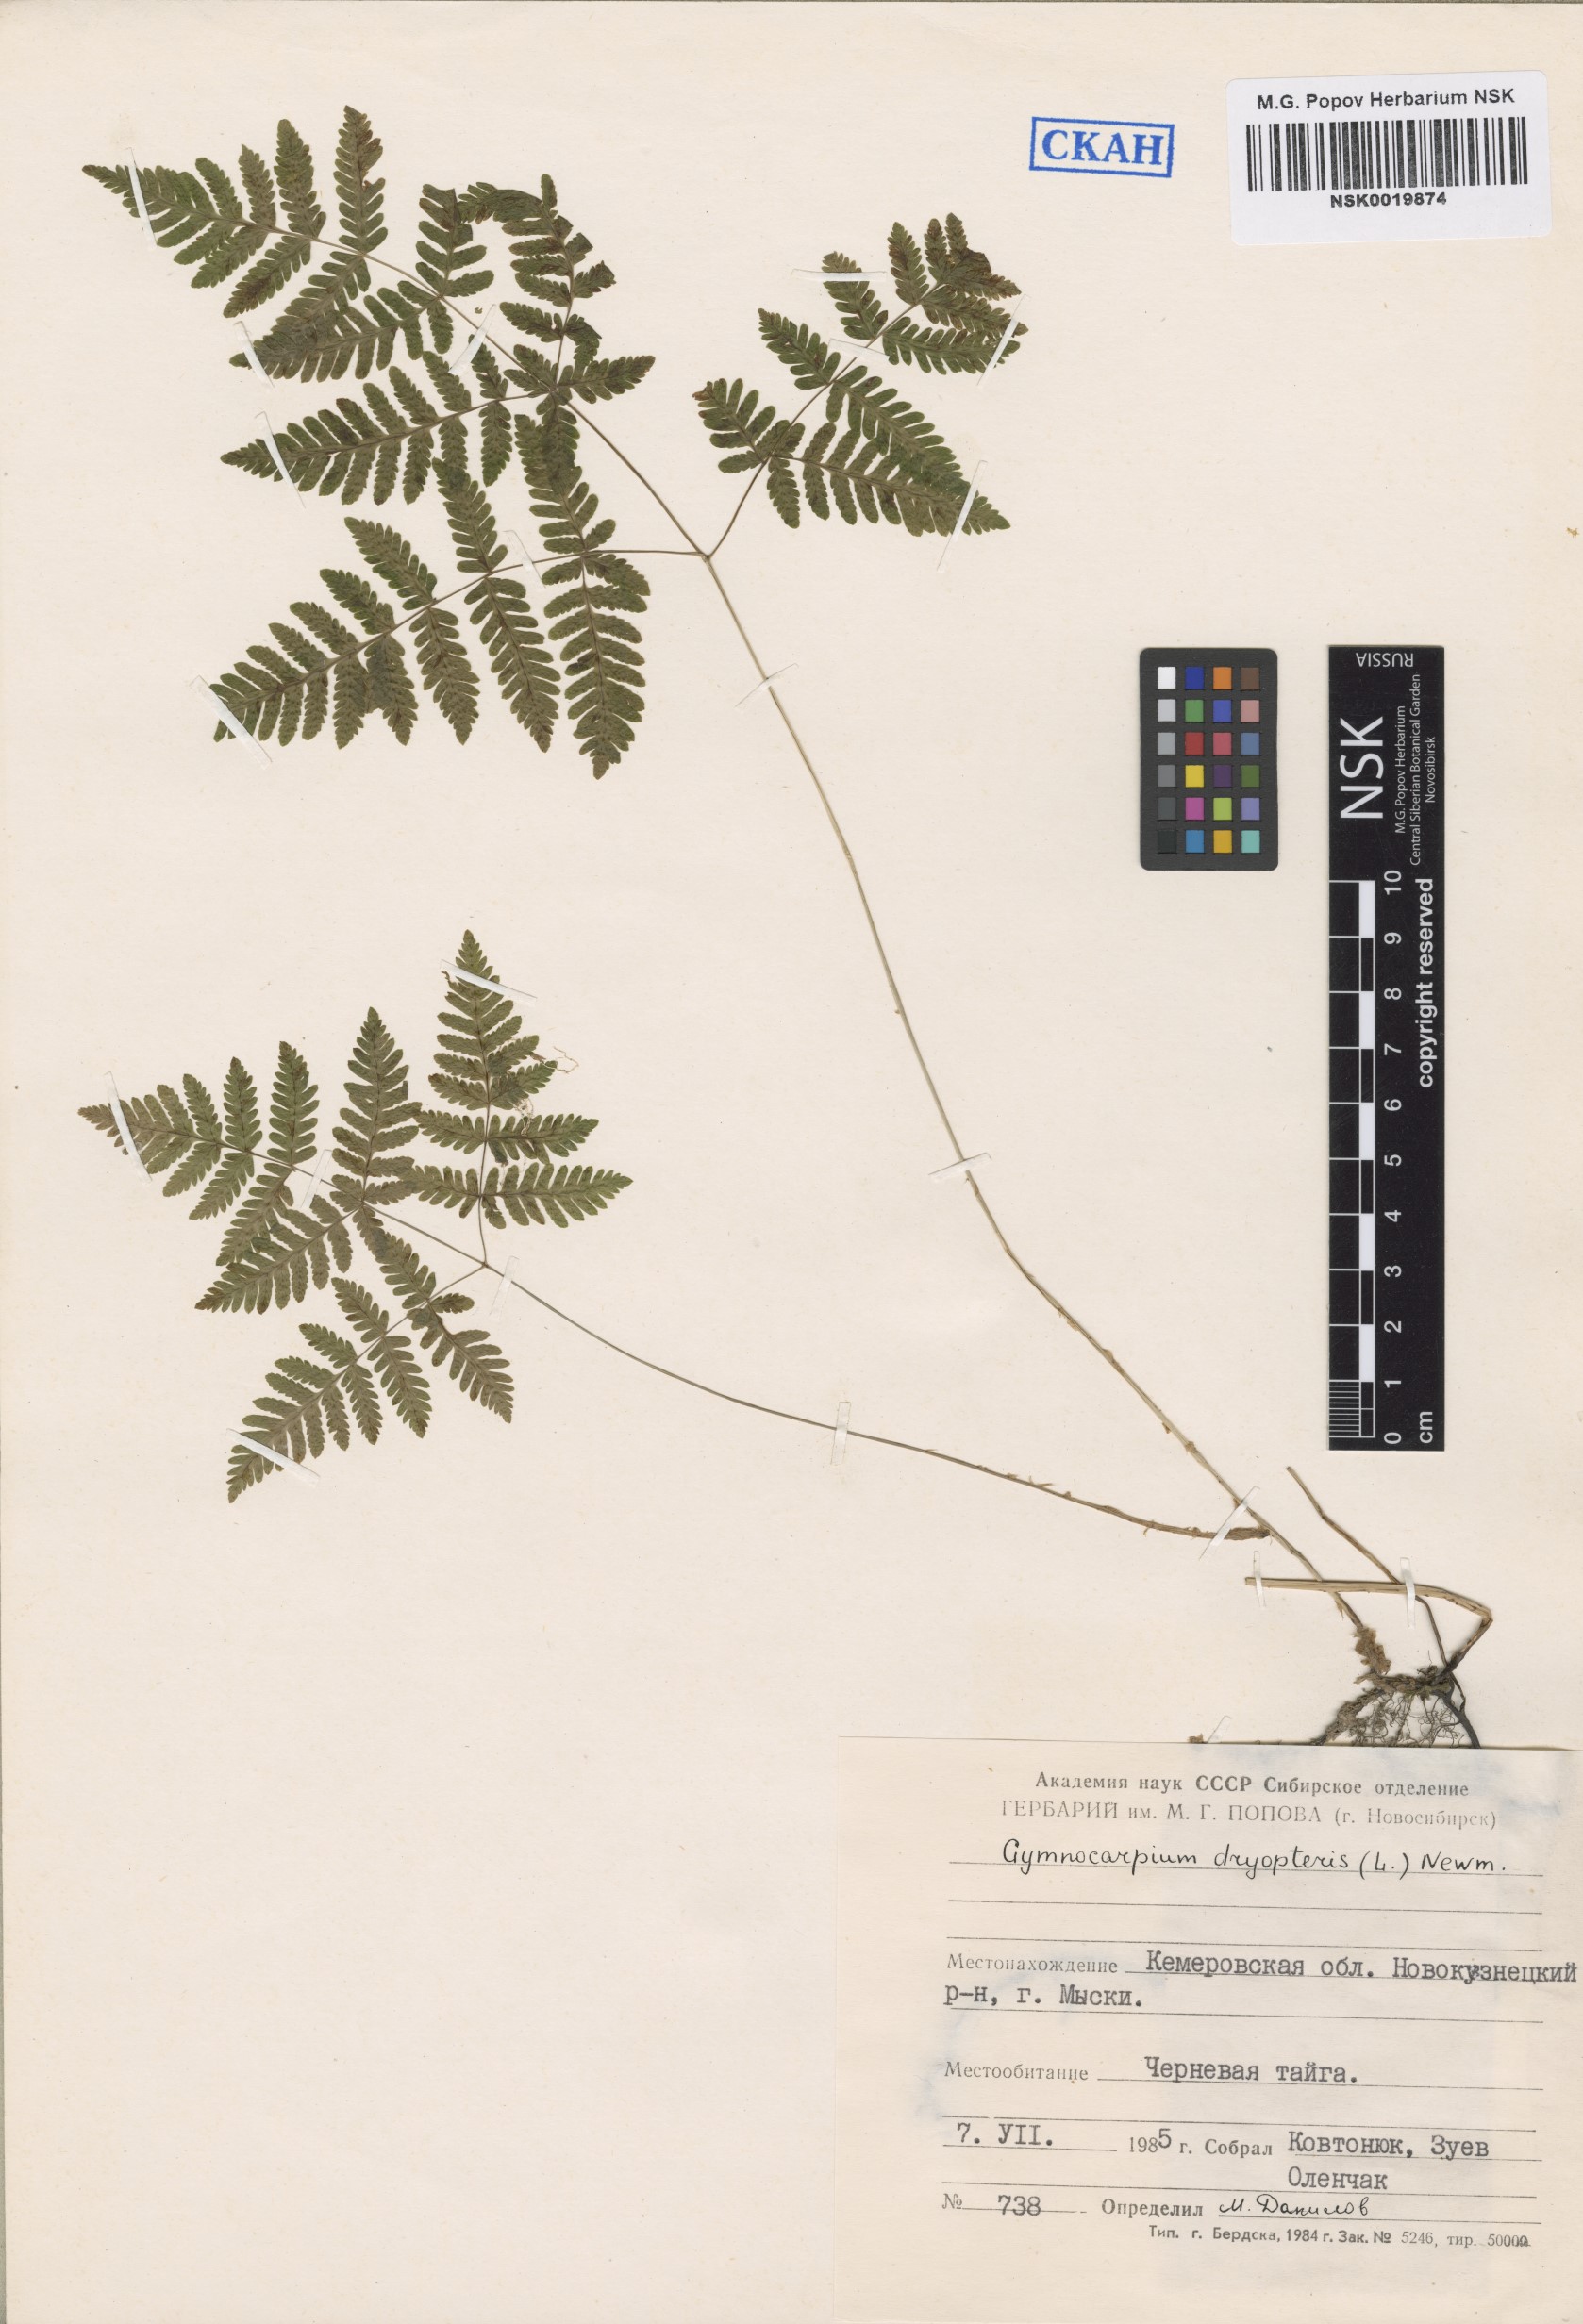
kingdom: Plantae
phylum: Tracheophyta
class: Polypodiopsida
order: Polypodiales
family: Cystopteridaceae
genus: Gymnocarpium
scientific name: Gymnocarpium dryopteris
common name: Oak fern
